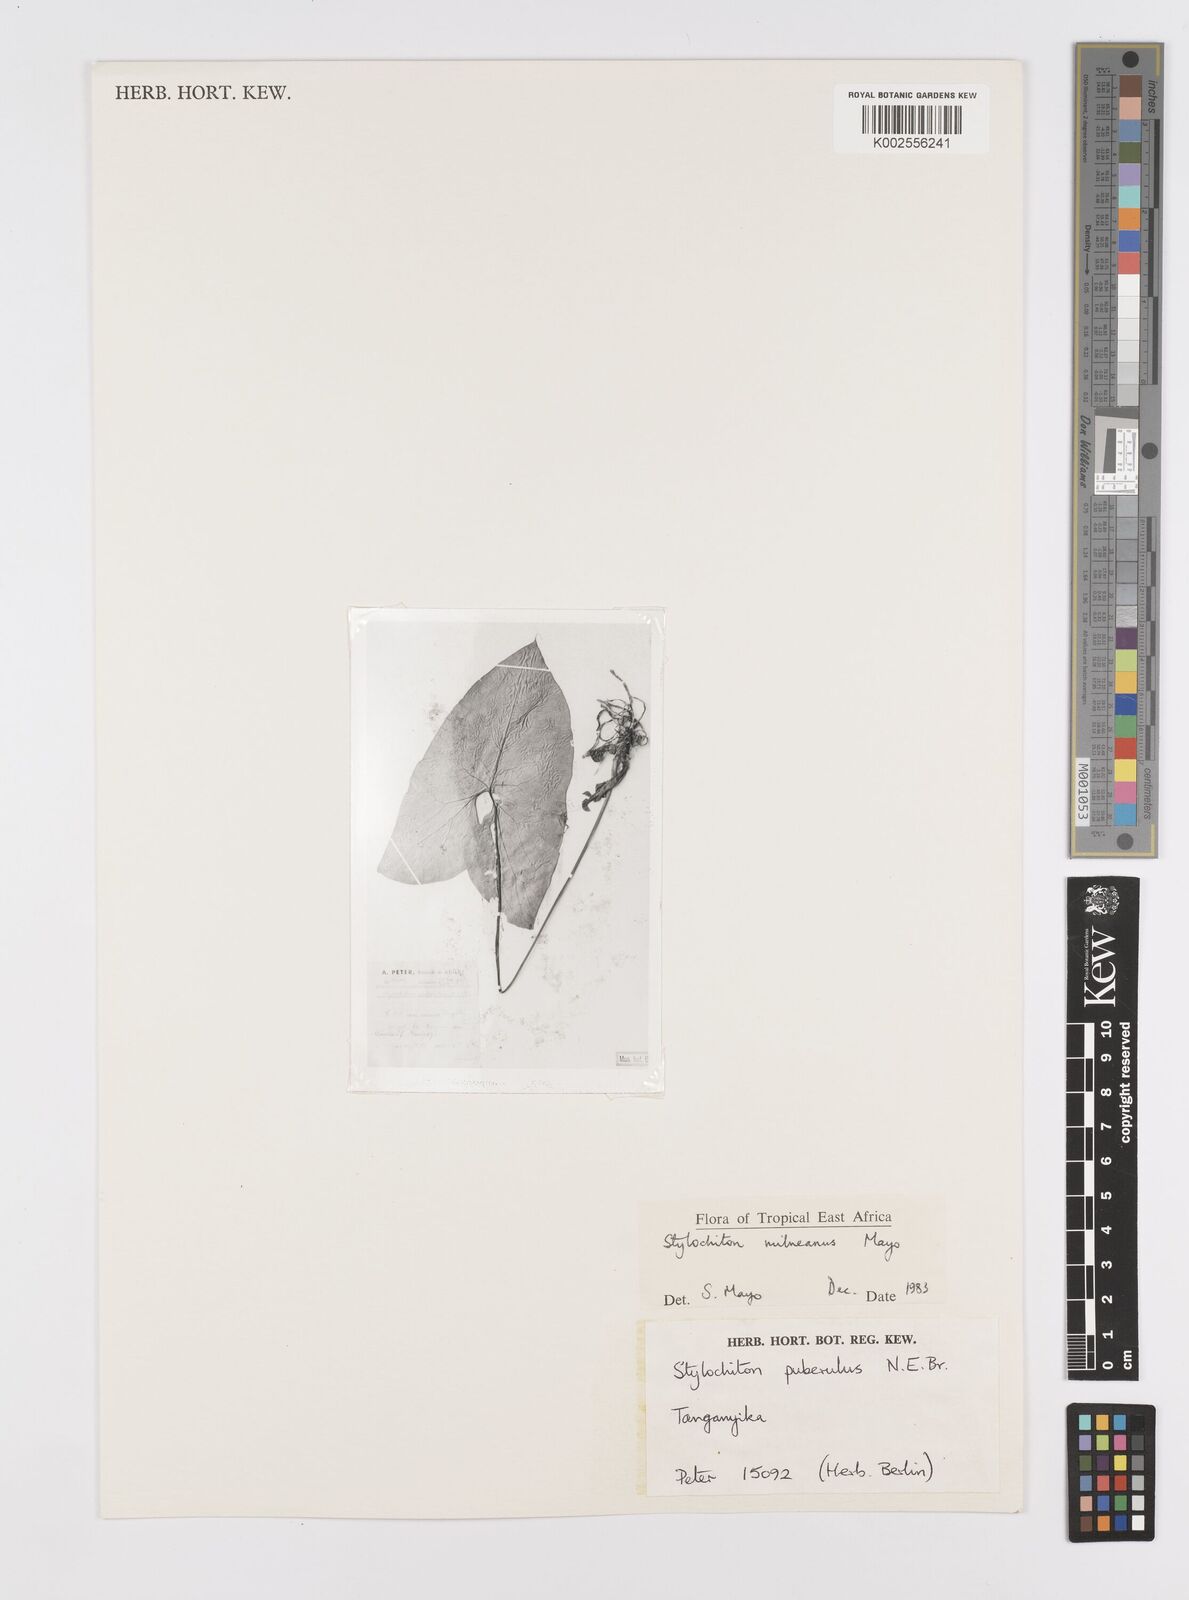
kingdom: Plantae
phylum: Tracheophyta
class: Liliopsida
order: Alismatales
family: Araceae
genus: Stylochaeton
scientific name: Stylochaeton milneanum
